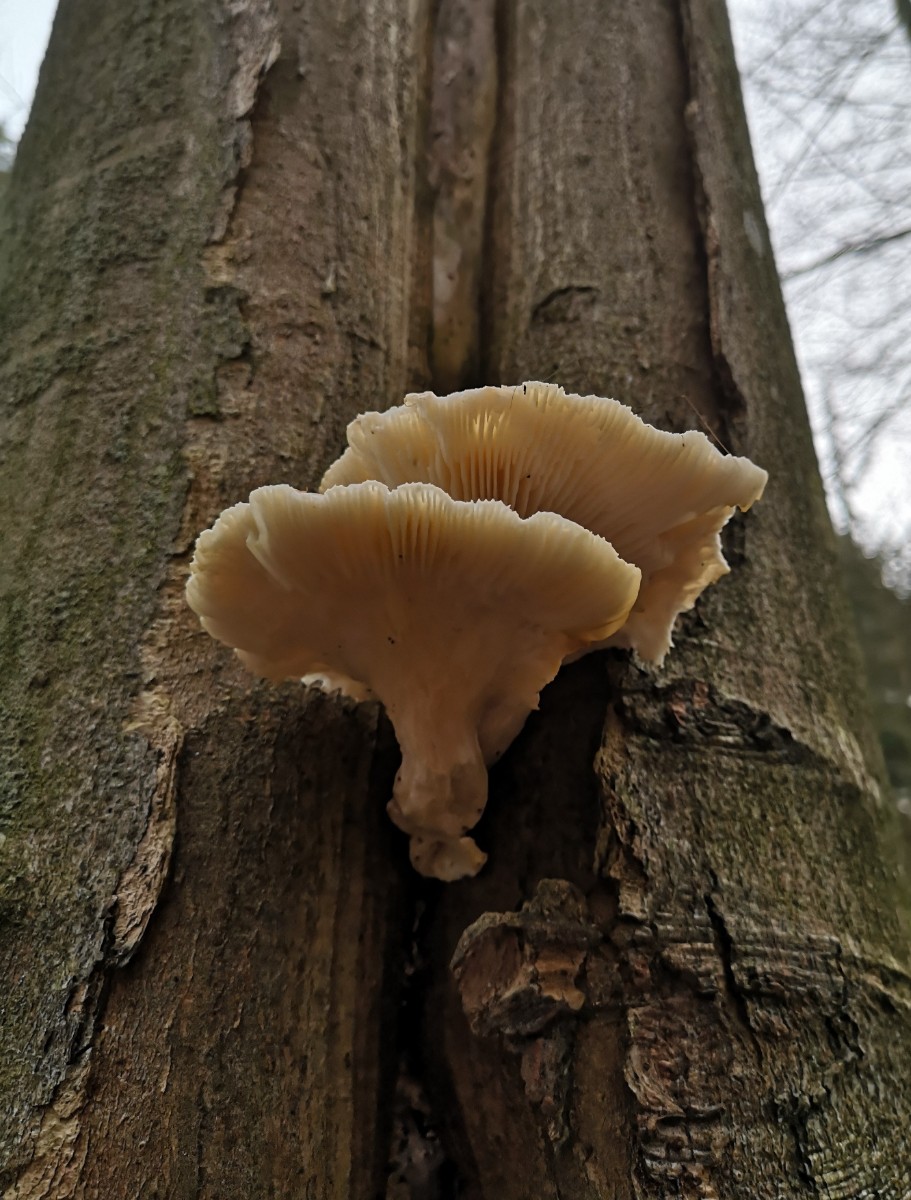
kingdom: Fungi
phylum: Basidiomycota
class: Agaricomycetes
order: Agaricales
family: Pleurotaceae
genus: Pleurotus
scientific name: Pleurotus dryinus
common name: korkagtig østershat
